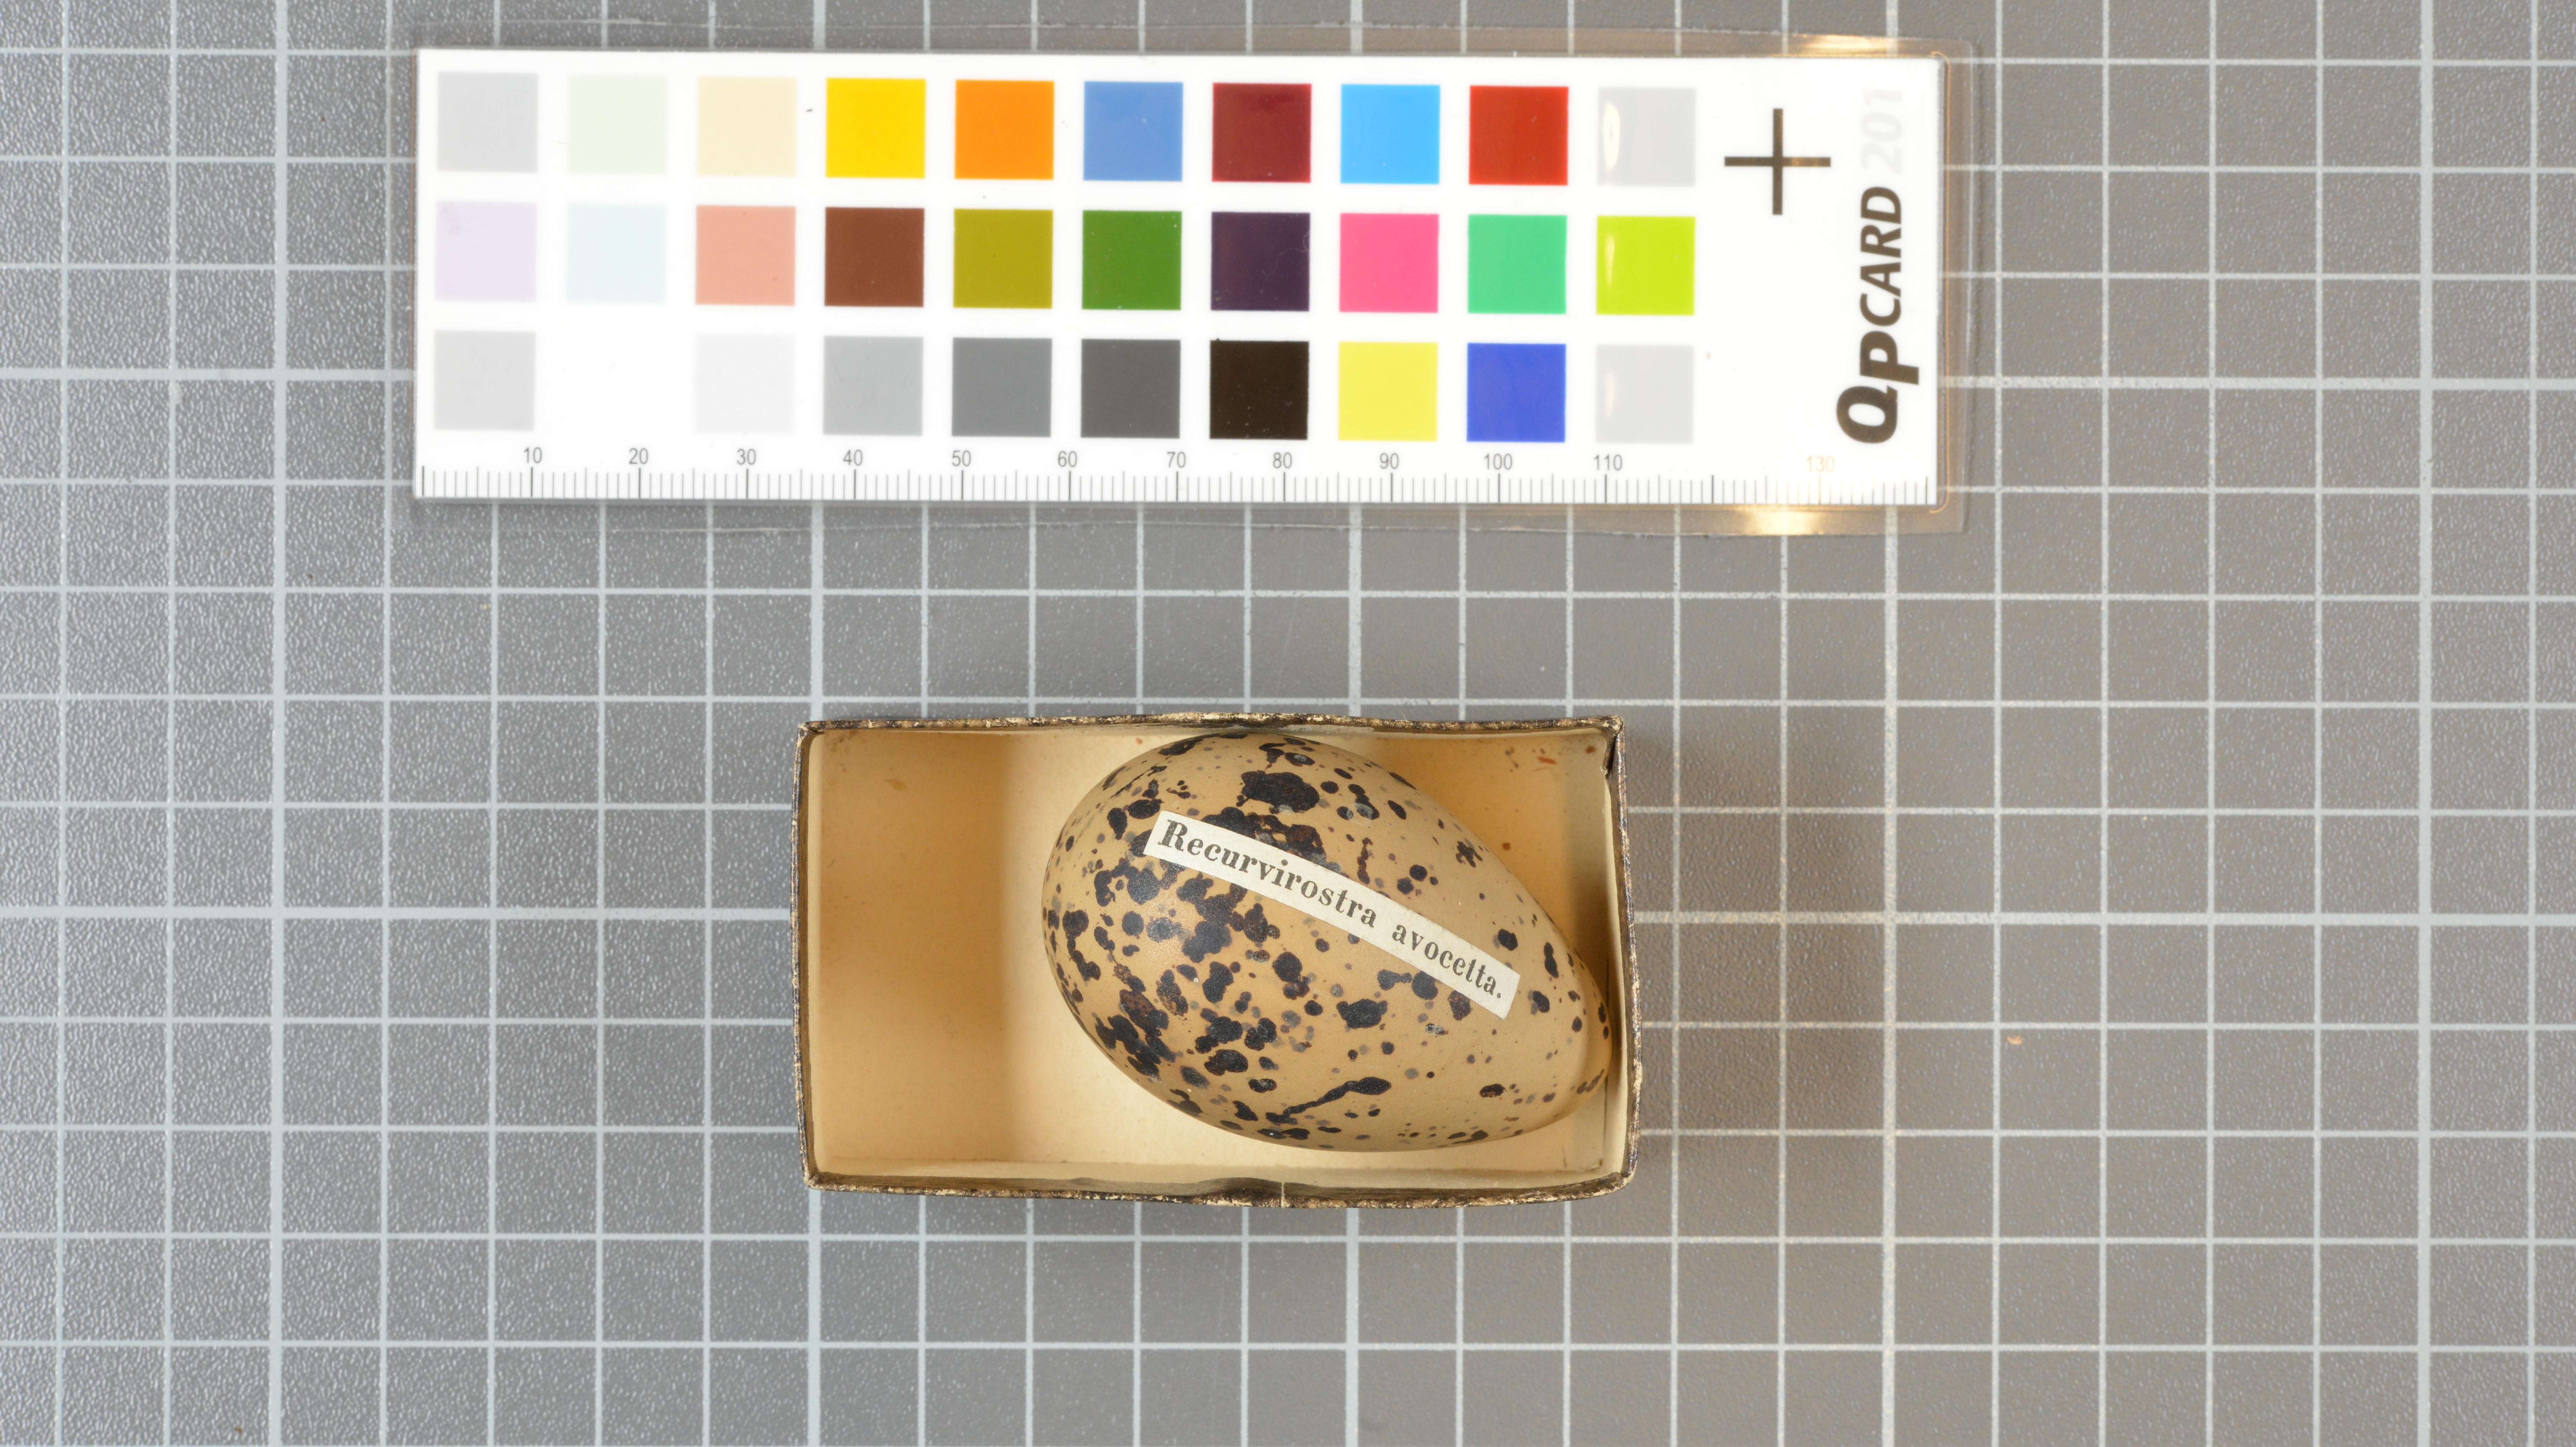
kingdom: Animalia
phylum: Chordata
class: Aves
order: Charadriiformes
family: Recurvirostridae
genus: Recurvirostra
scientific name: Recurvirostra avosetta
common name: Pied avocet
